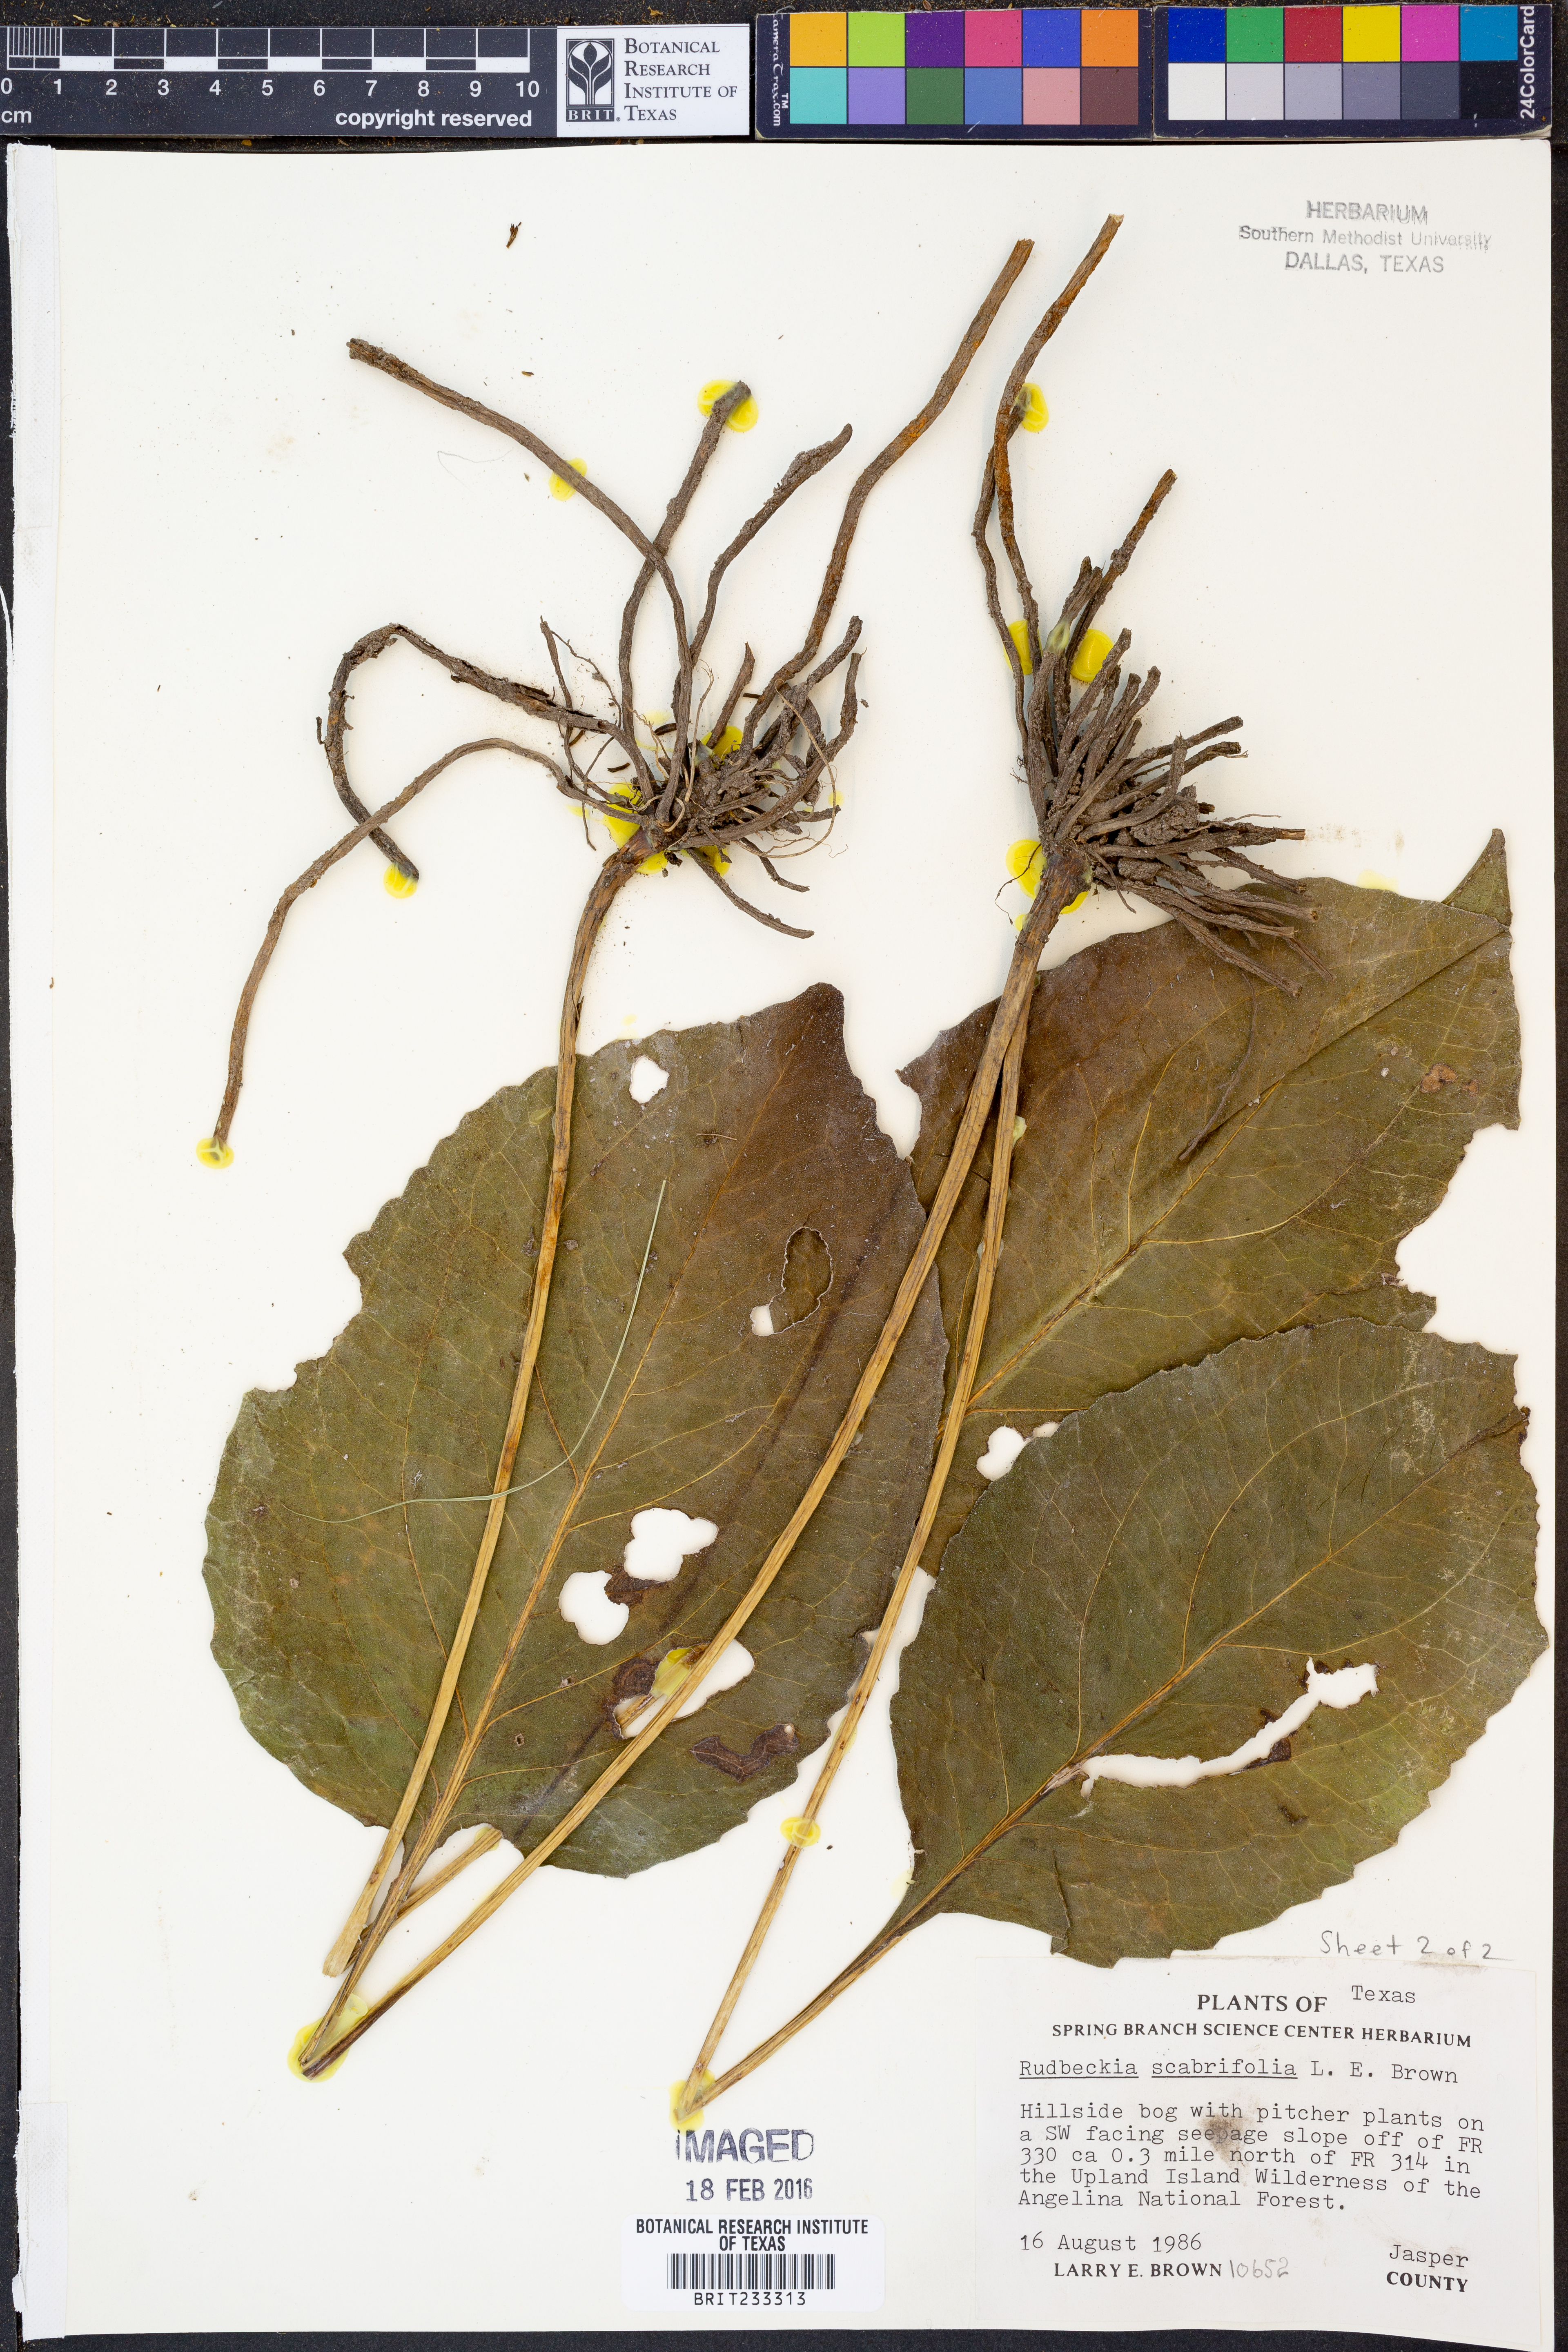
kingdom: Plantae
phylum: Tracheophyta
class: Magnoliopsida
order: Asterales
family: Asteraceae
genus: Rudbeckia
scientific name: Rudbeckia scabrifolia
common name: Rough-leaf coneflower
